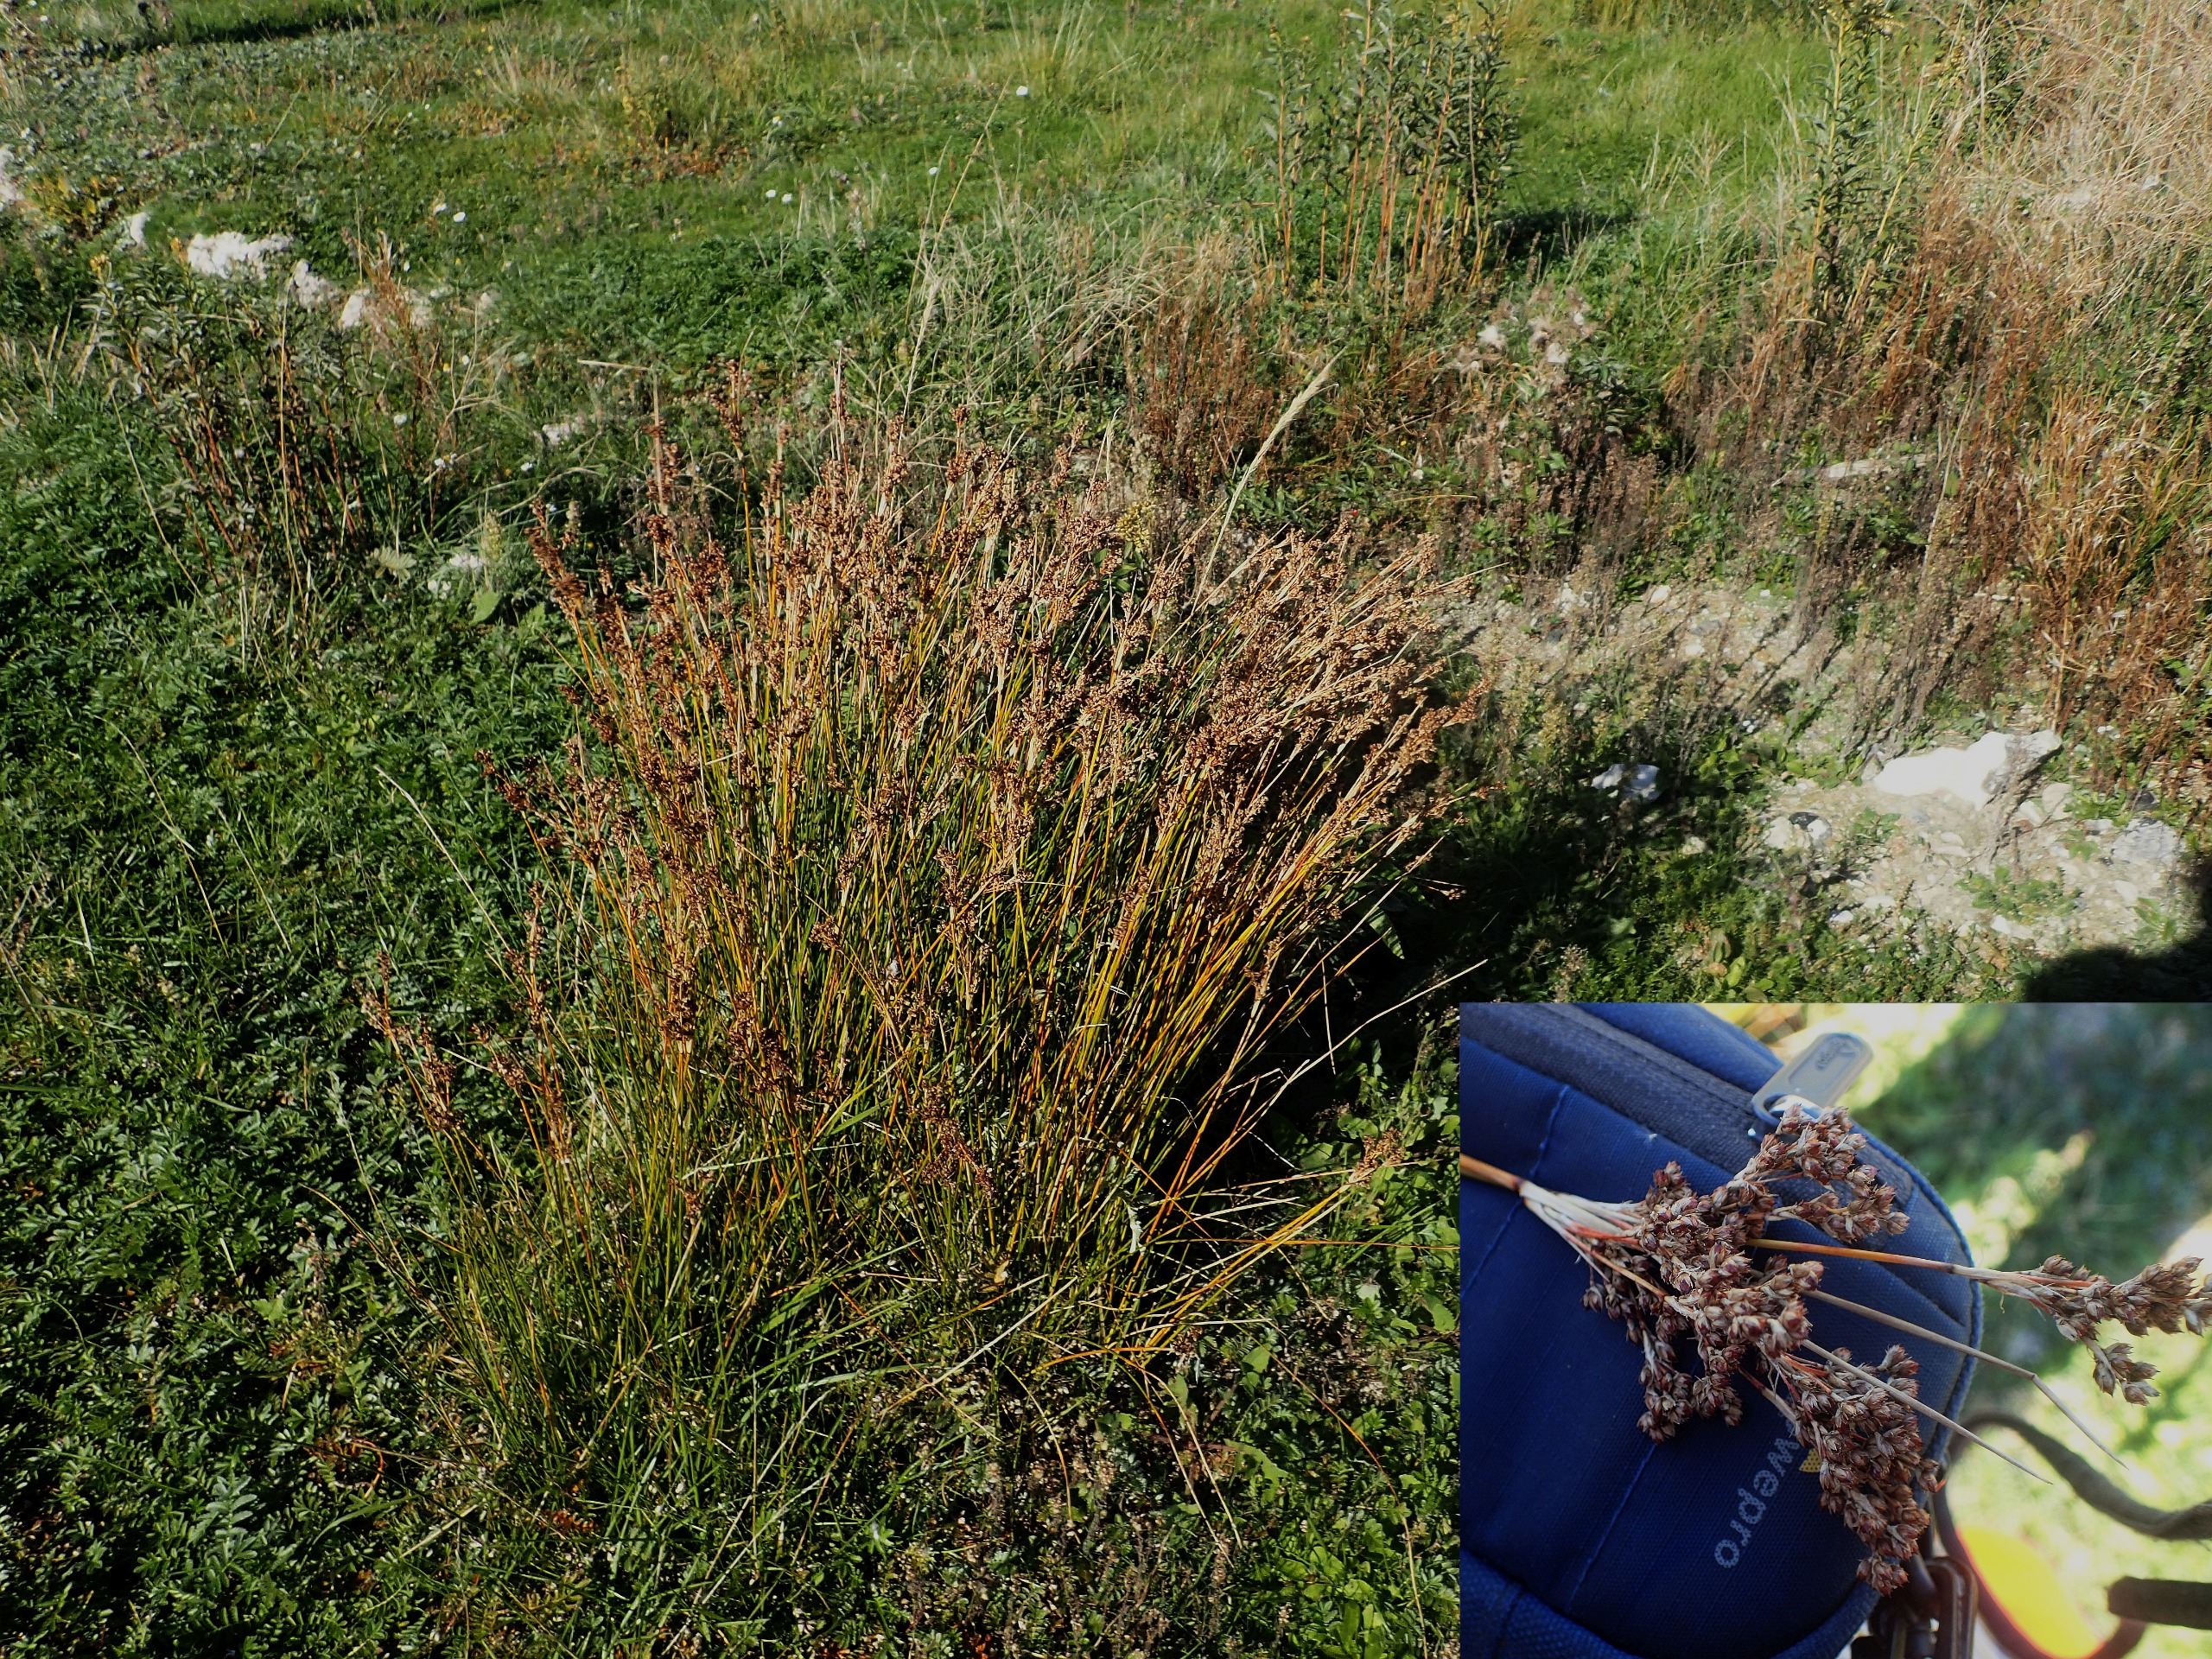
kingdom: Plantae
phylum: Tracheophyta
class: Liliopsida
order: Poales
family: Juncaceae
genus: Juncus
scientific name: Juncus maritimus
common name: Strand-siv
